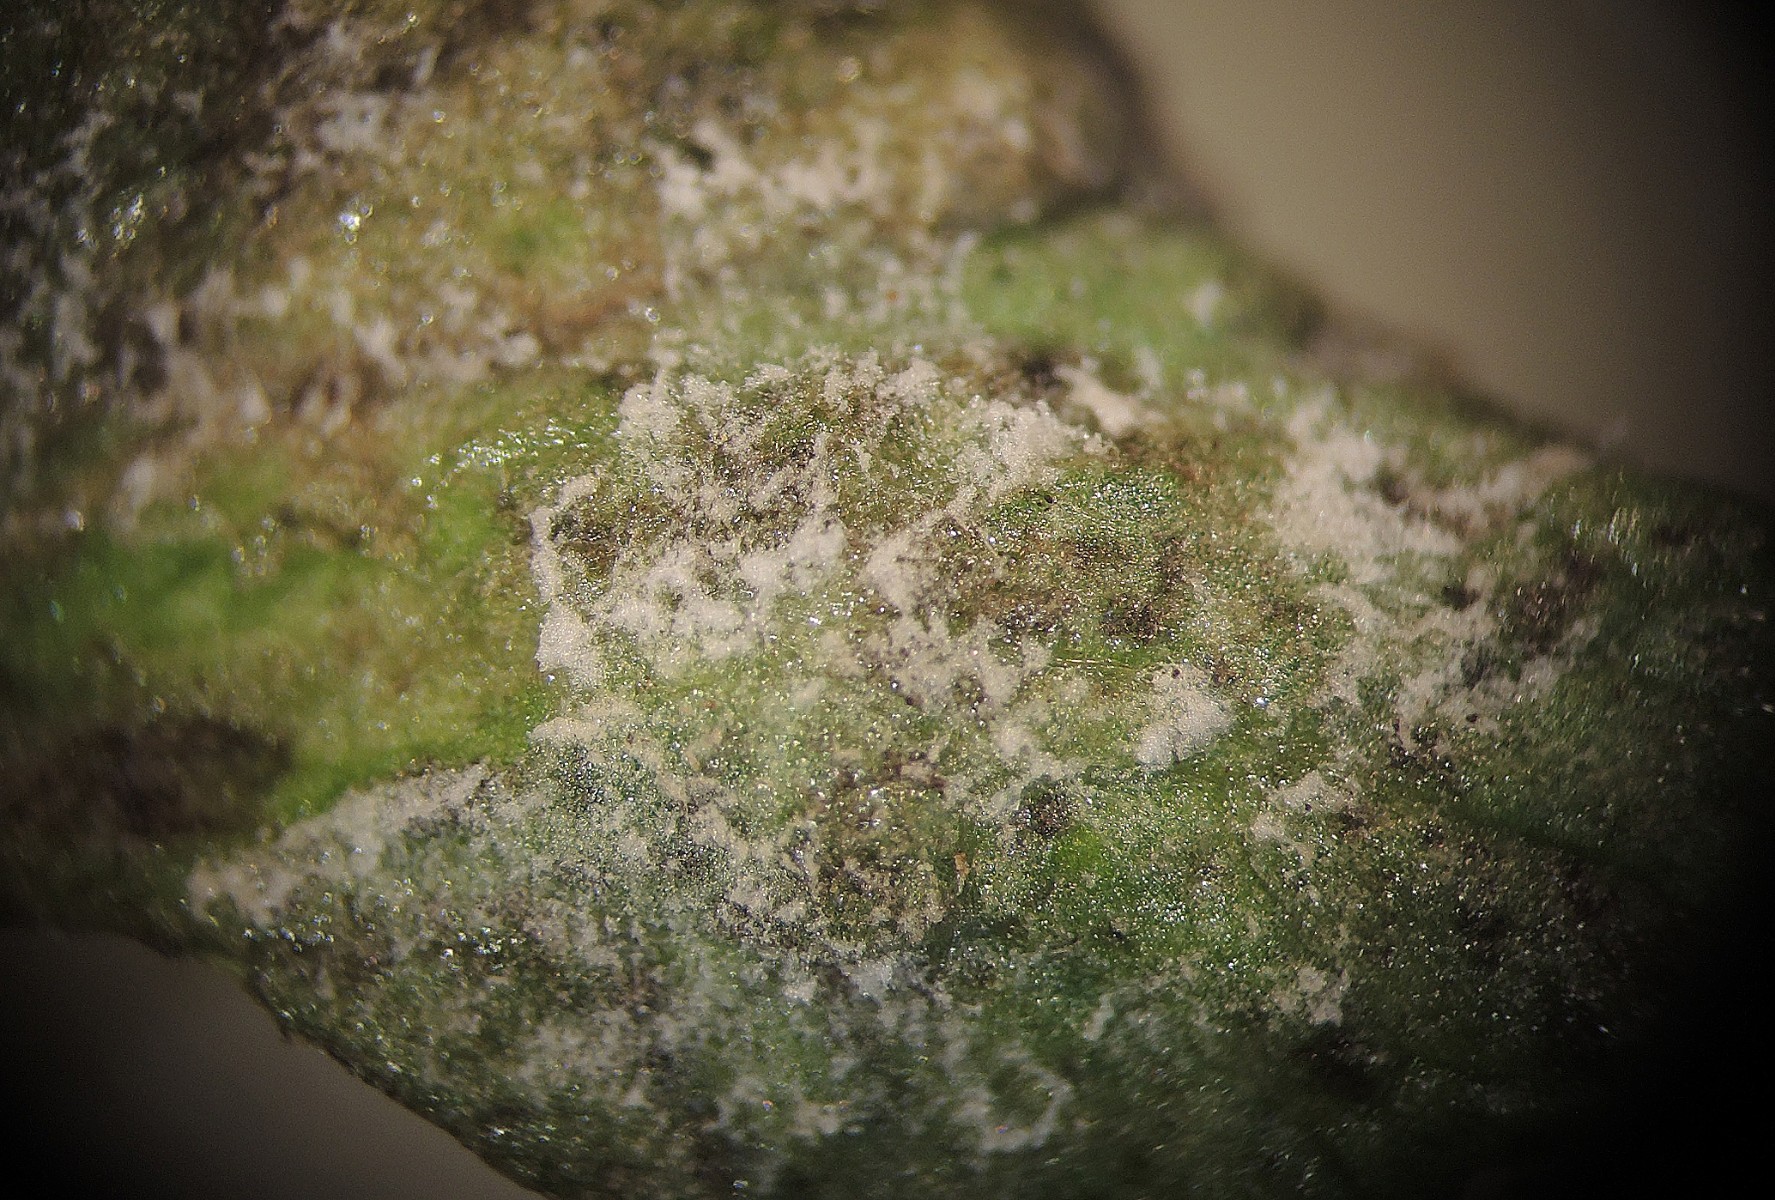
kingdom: Chromista
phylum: Oomycota
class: Peronosporea
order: Peronosporales
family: Peronosporaceae
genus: Hyaloperonospora
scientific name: Hyaloperonospora niessliana
